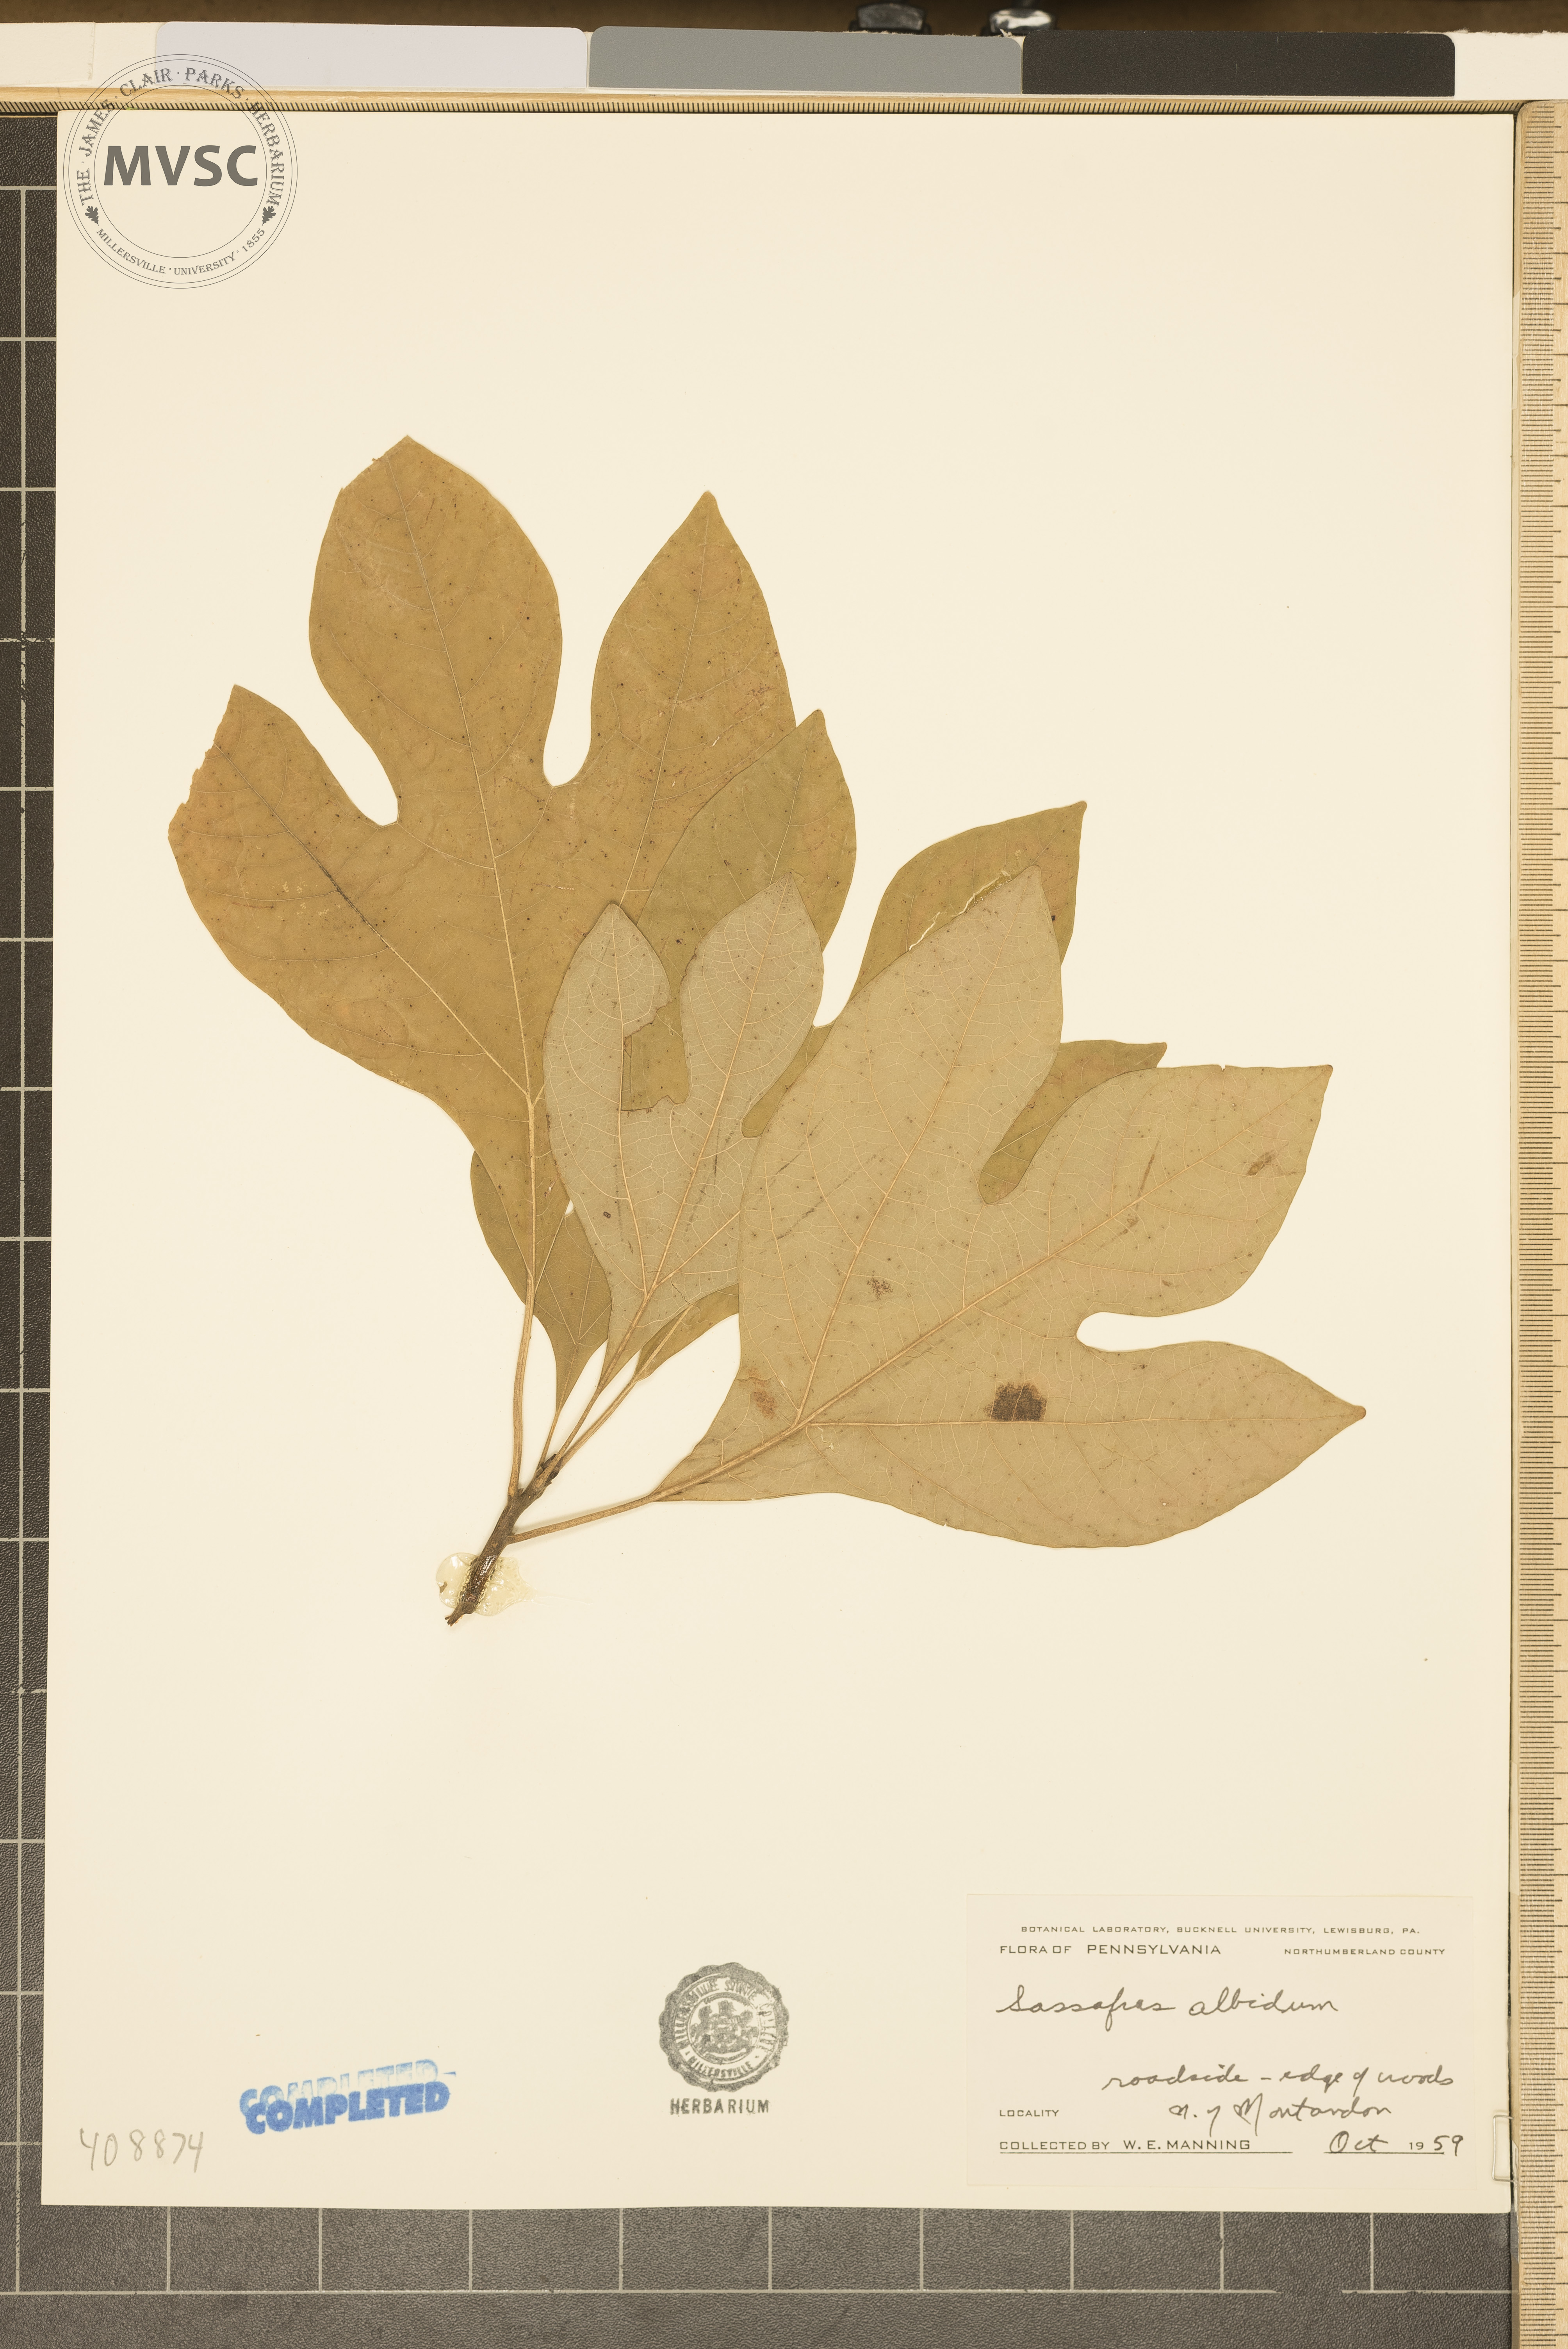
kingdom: Plantae
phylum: Tracheophyta
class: Magnoliopsida
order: Laurales
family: Lauraceae
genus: Sassafras
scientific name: Sassafras albidum
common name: Sassafras
